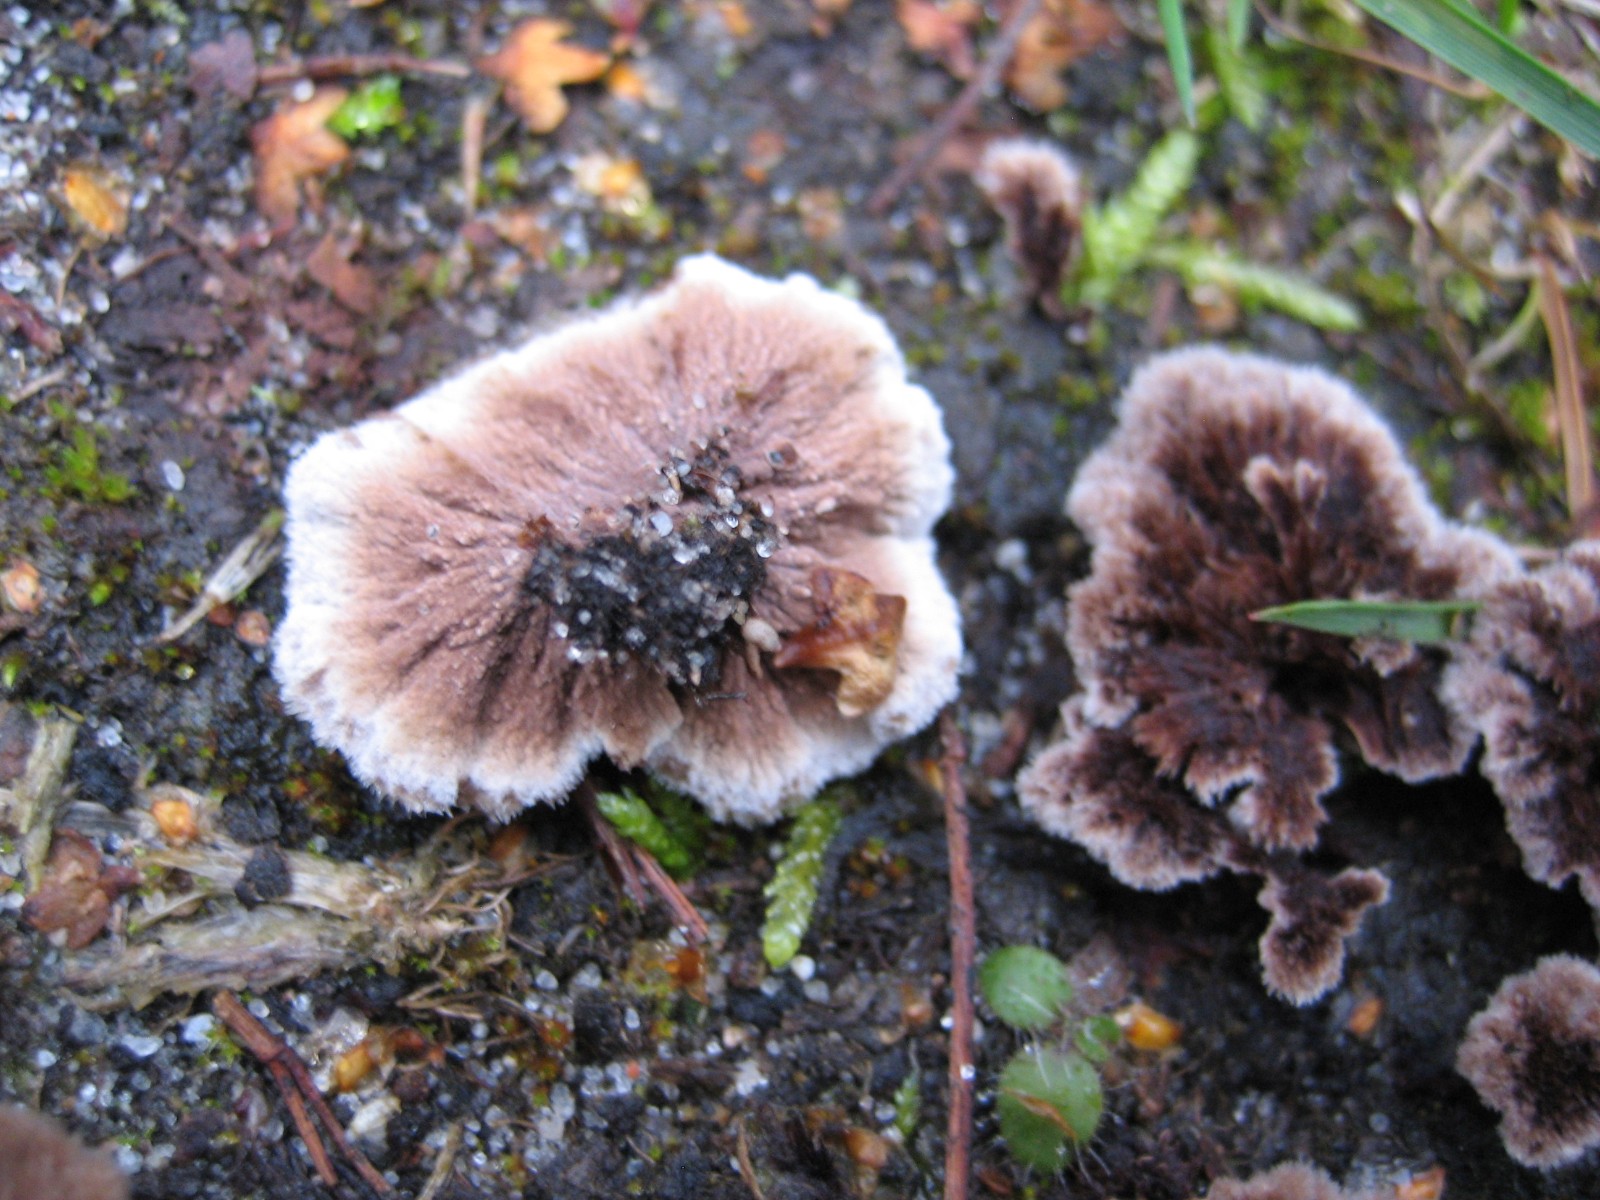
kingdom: Fungi
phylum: Basidiomycota
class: Agaricomycetes
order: Thelephorales
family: Thelephoraceae
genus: Thelephora
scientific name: Thelephora terrestris
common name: fliget frynsesvamp
